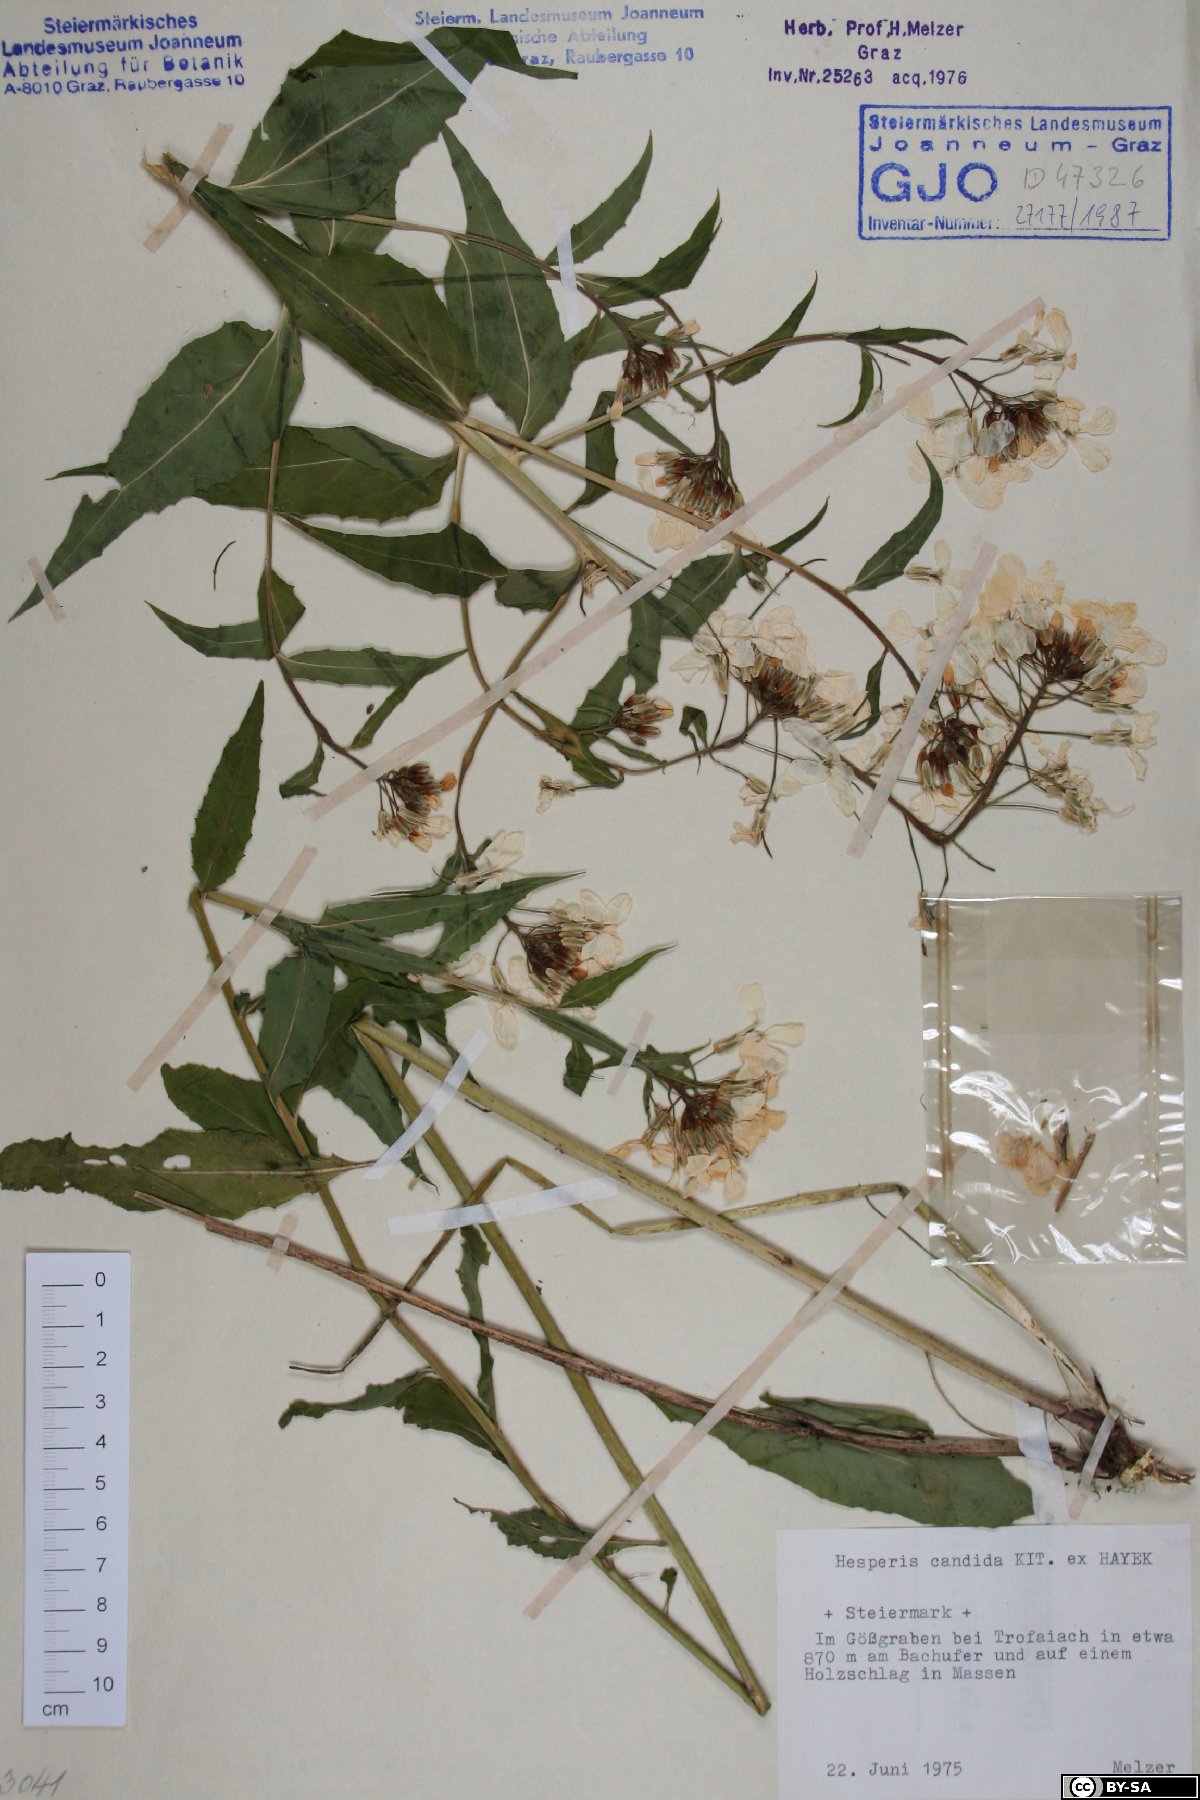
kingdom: Plantae
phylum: Tracheophyta
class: Magnoliopsida
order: Brassicales
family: Brassicaceae
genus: Hesperis
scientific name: Hesperis matronalis
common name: Dame's-violet
